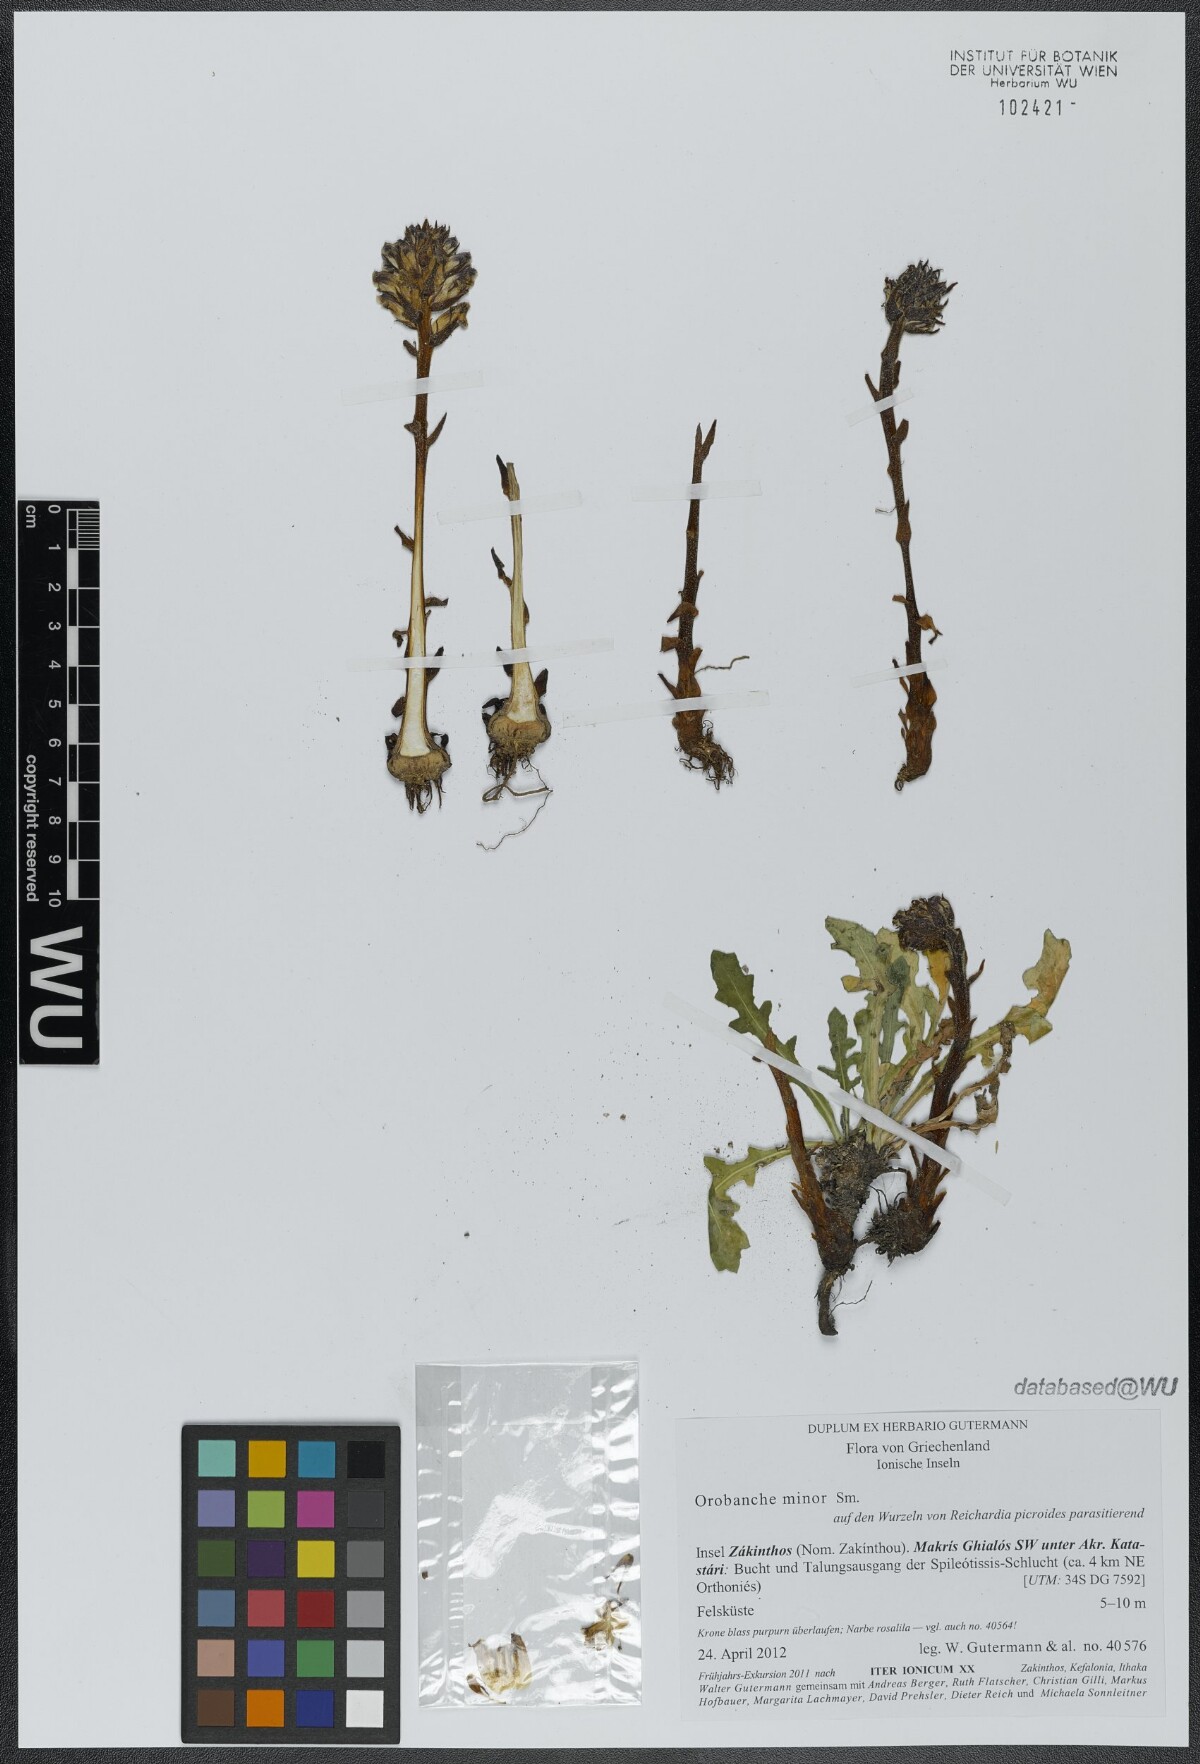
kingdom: Plantae
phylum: Tracheophyta
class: Magnoliopsida
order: Lamiales
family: Orobanchaceae
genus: Orobanche
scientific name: Orobanche grisebachii
